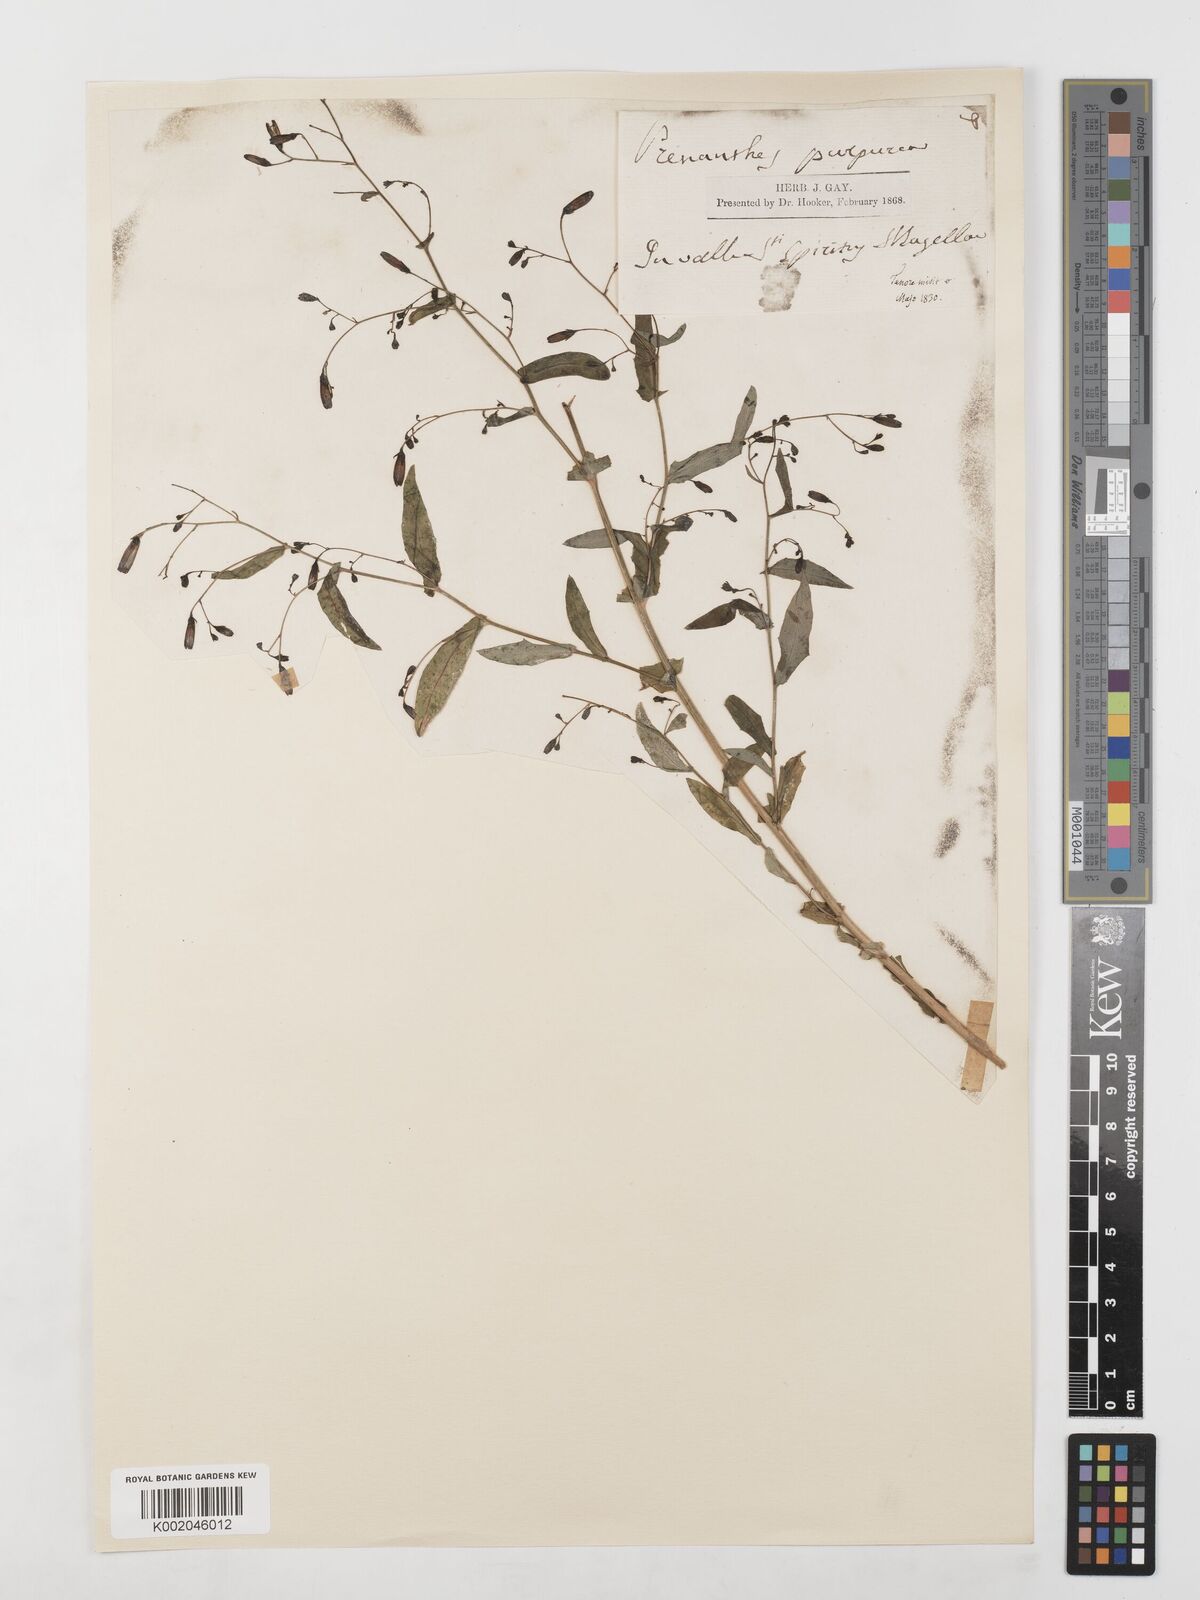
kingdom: Plantae
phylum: Tracheophyta
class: Magnoliopsida
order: Asterales
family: Asteraceae
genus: Prenanthes
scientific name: Prenanthes purpurea
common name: Purple lettuce
